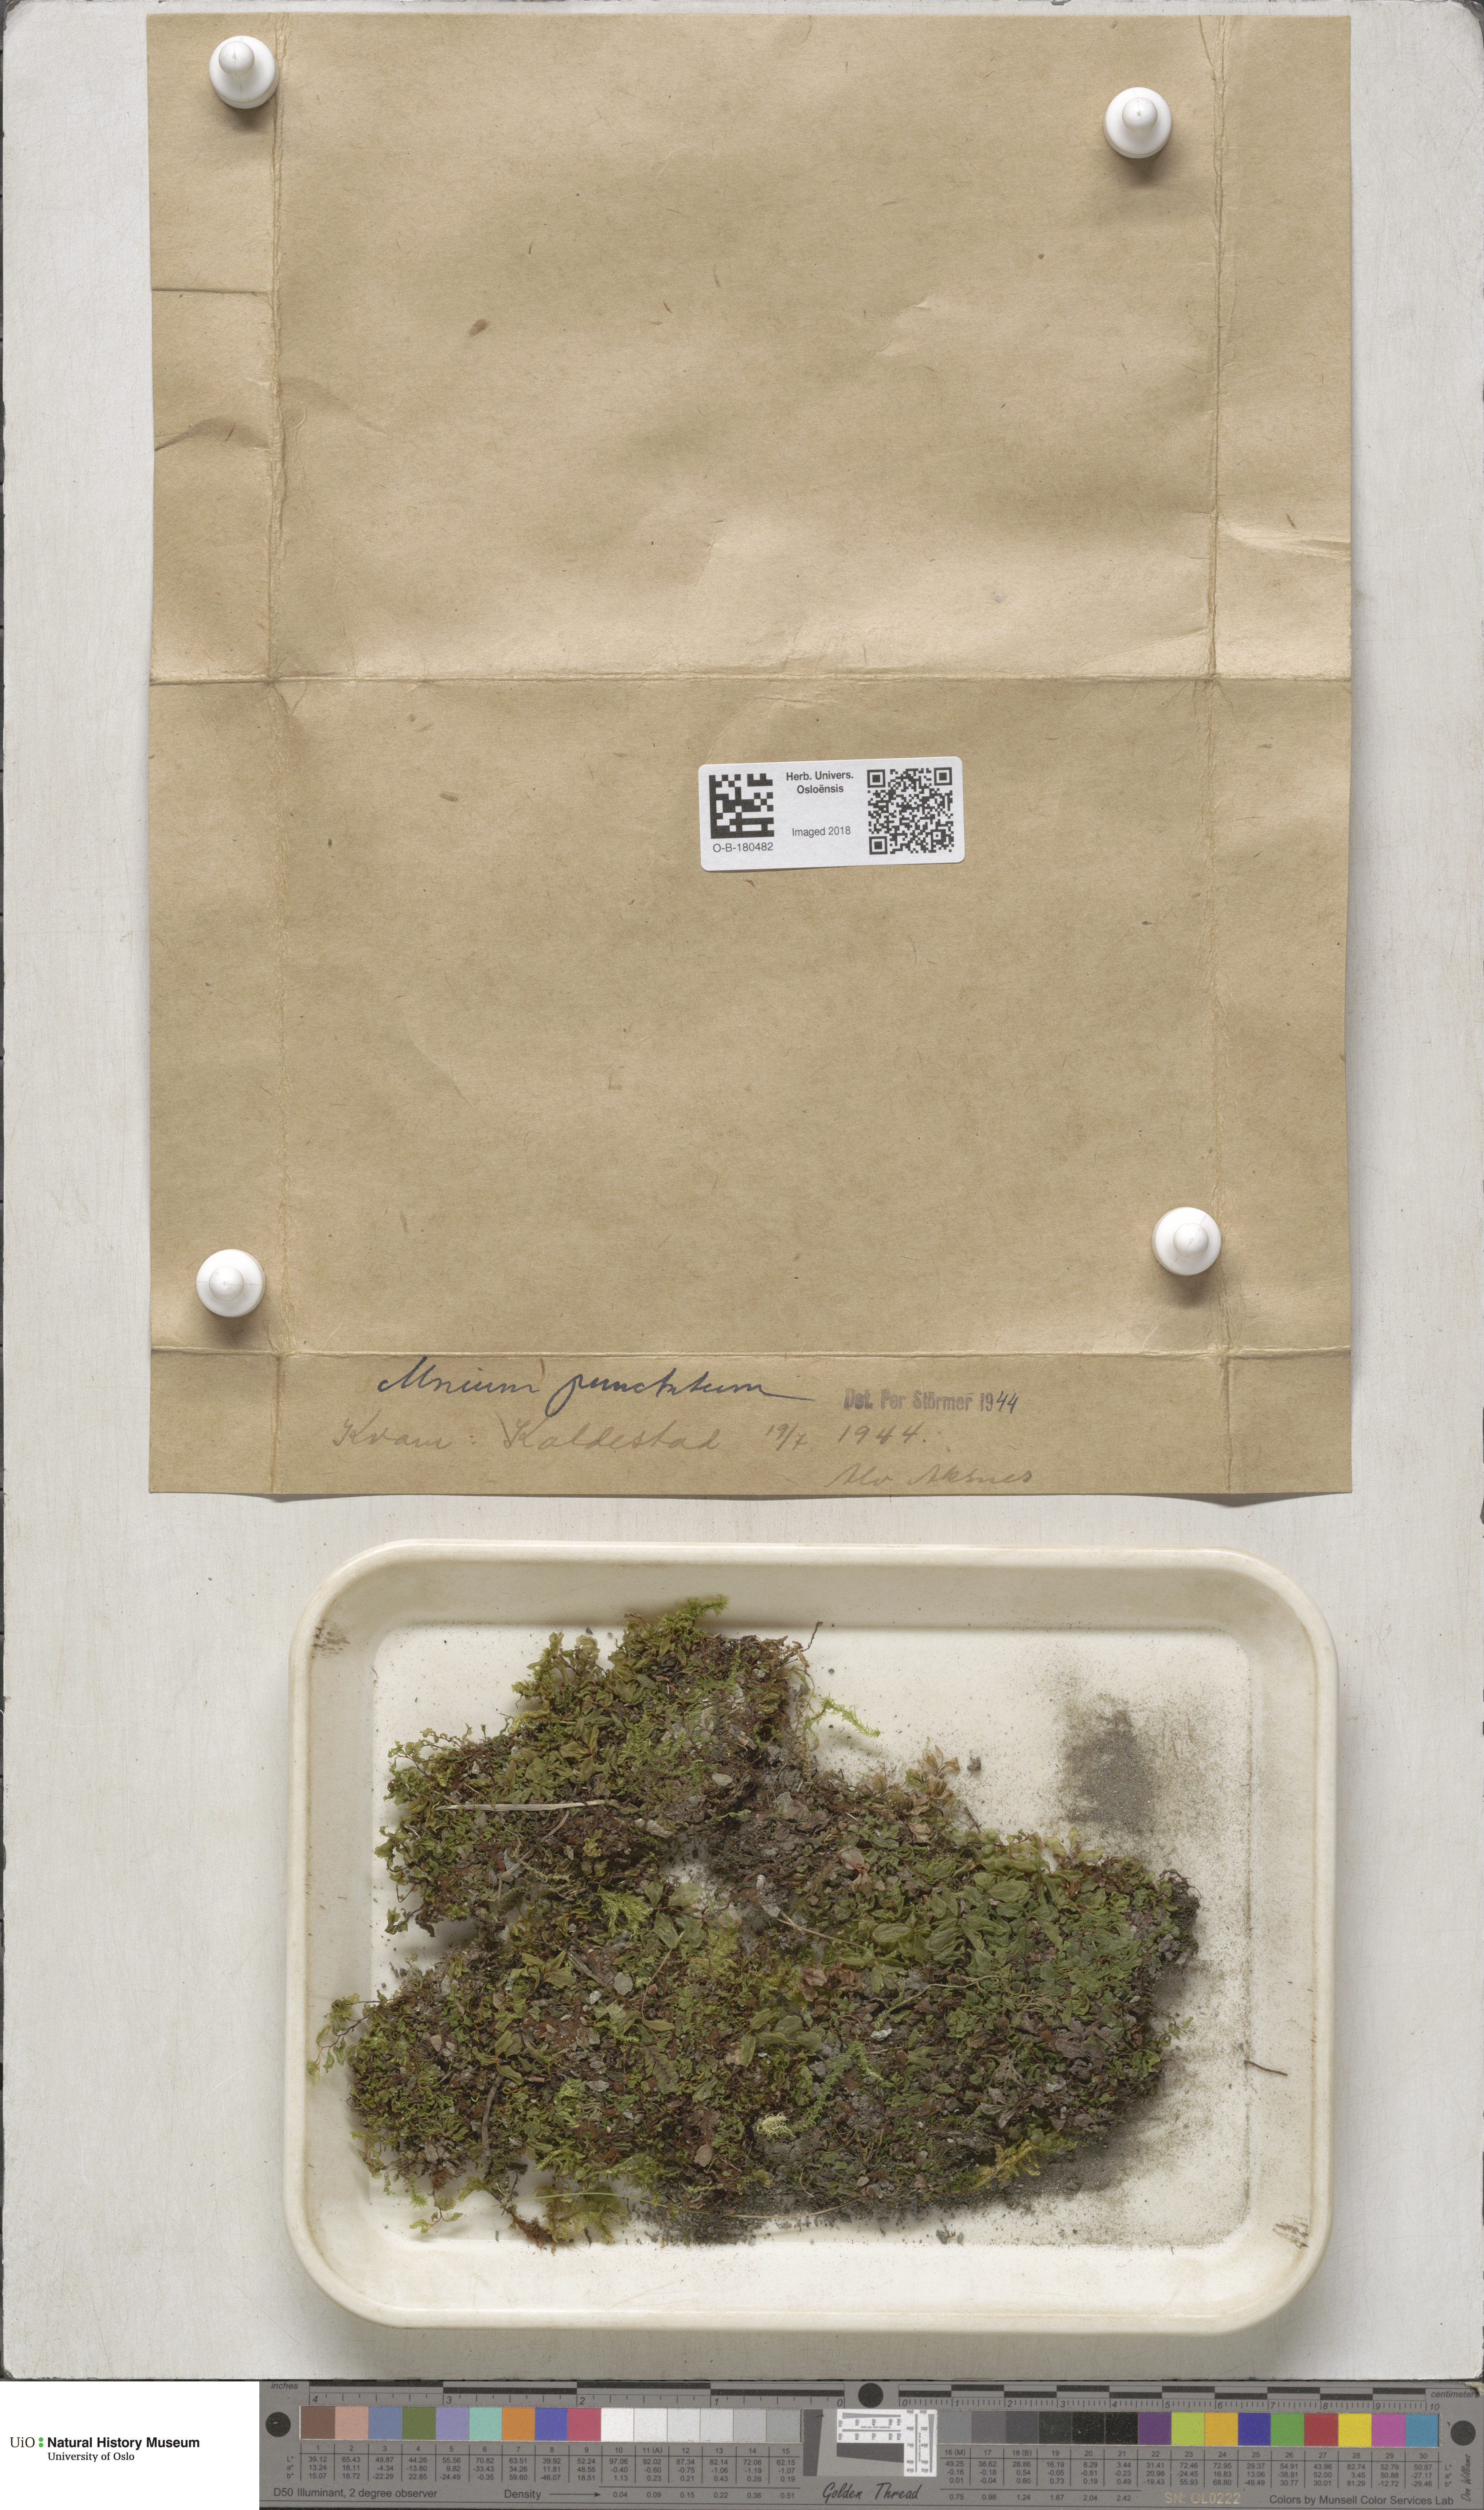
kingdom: Plantae
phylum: Bryophyta
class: Bryopsida
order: Bryales
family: Mniaceae
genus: Rhizomnium
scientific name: Rhizomnium punctatum
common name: Dotted leafy moss
